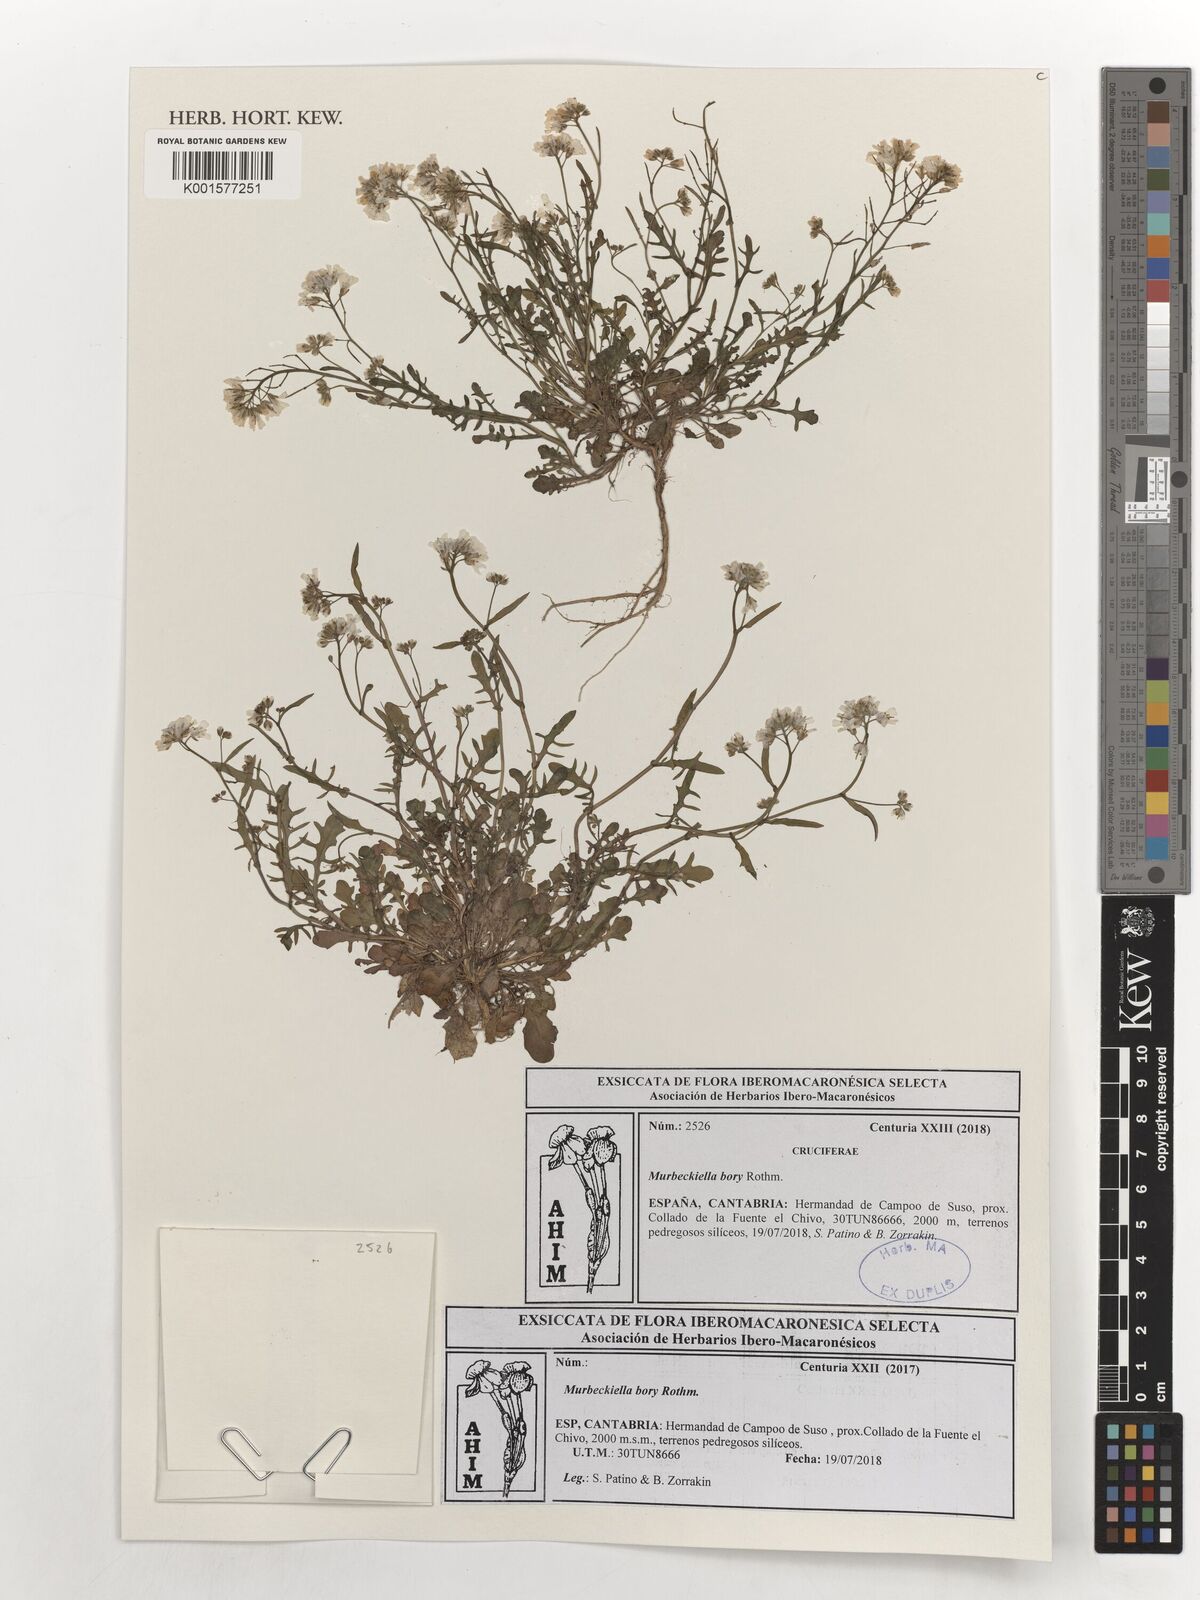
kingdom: Plantae
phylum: Tracheophyta
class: Magnoliopsida
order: Brassicales
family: Brassicaceae
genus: Murbeckiella
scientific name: Murbeckiella boryi
